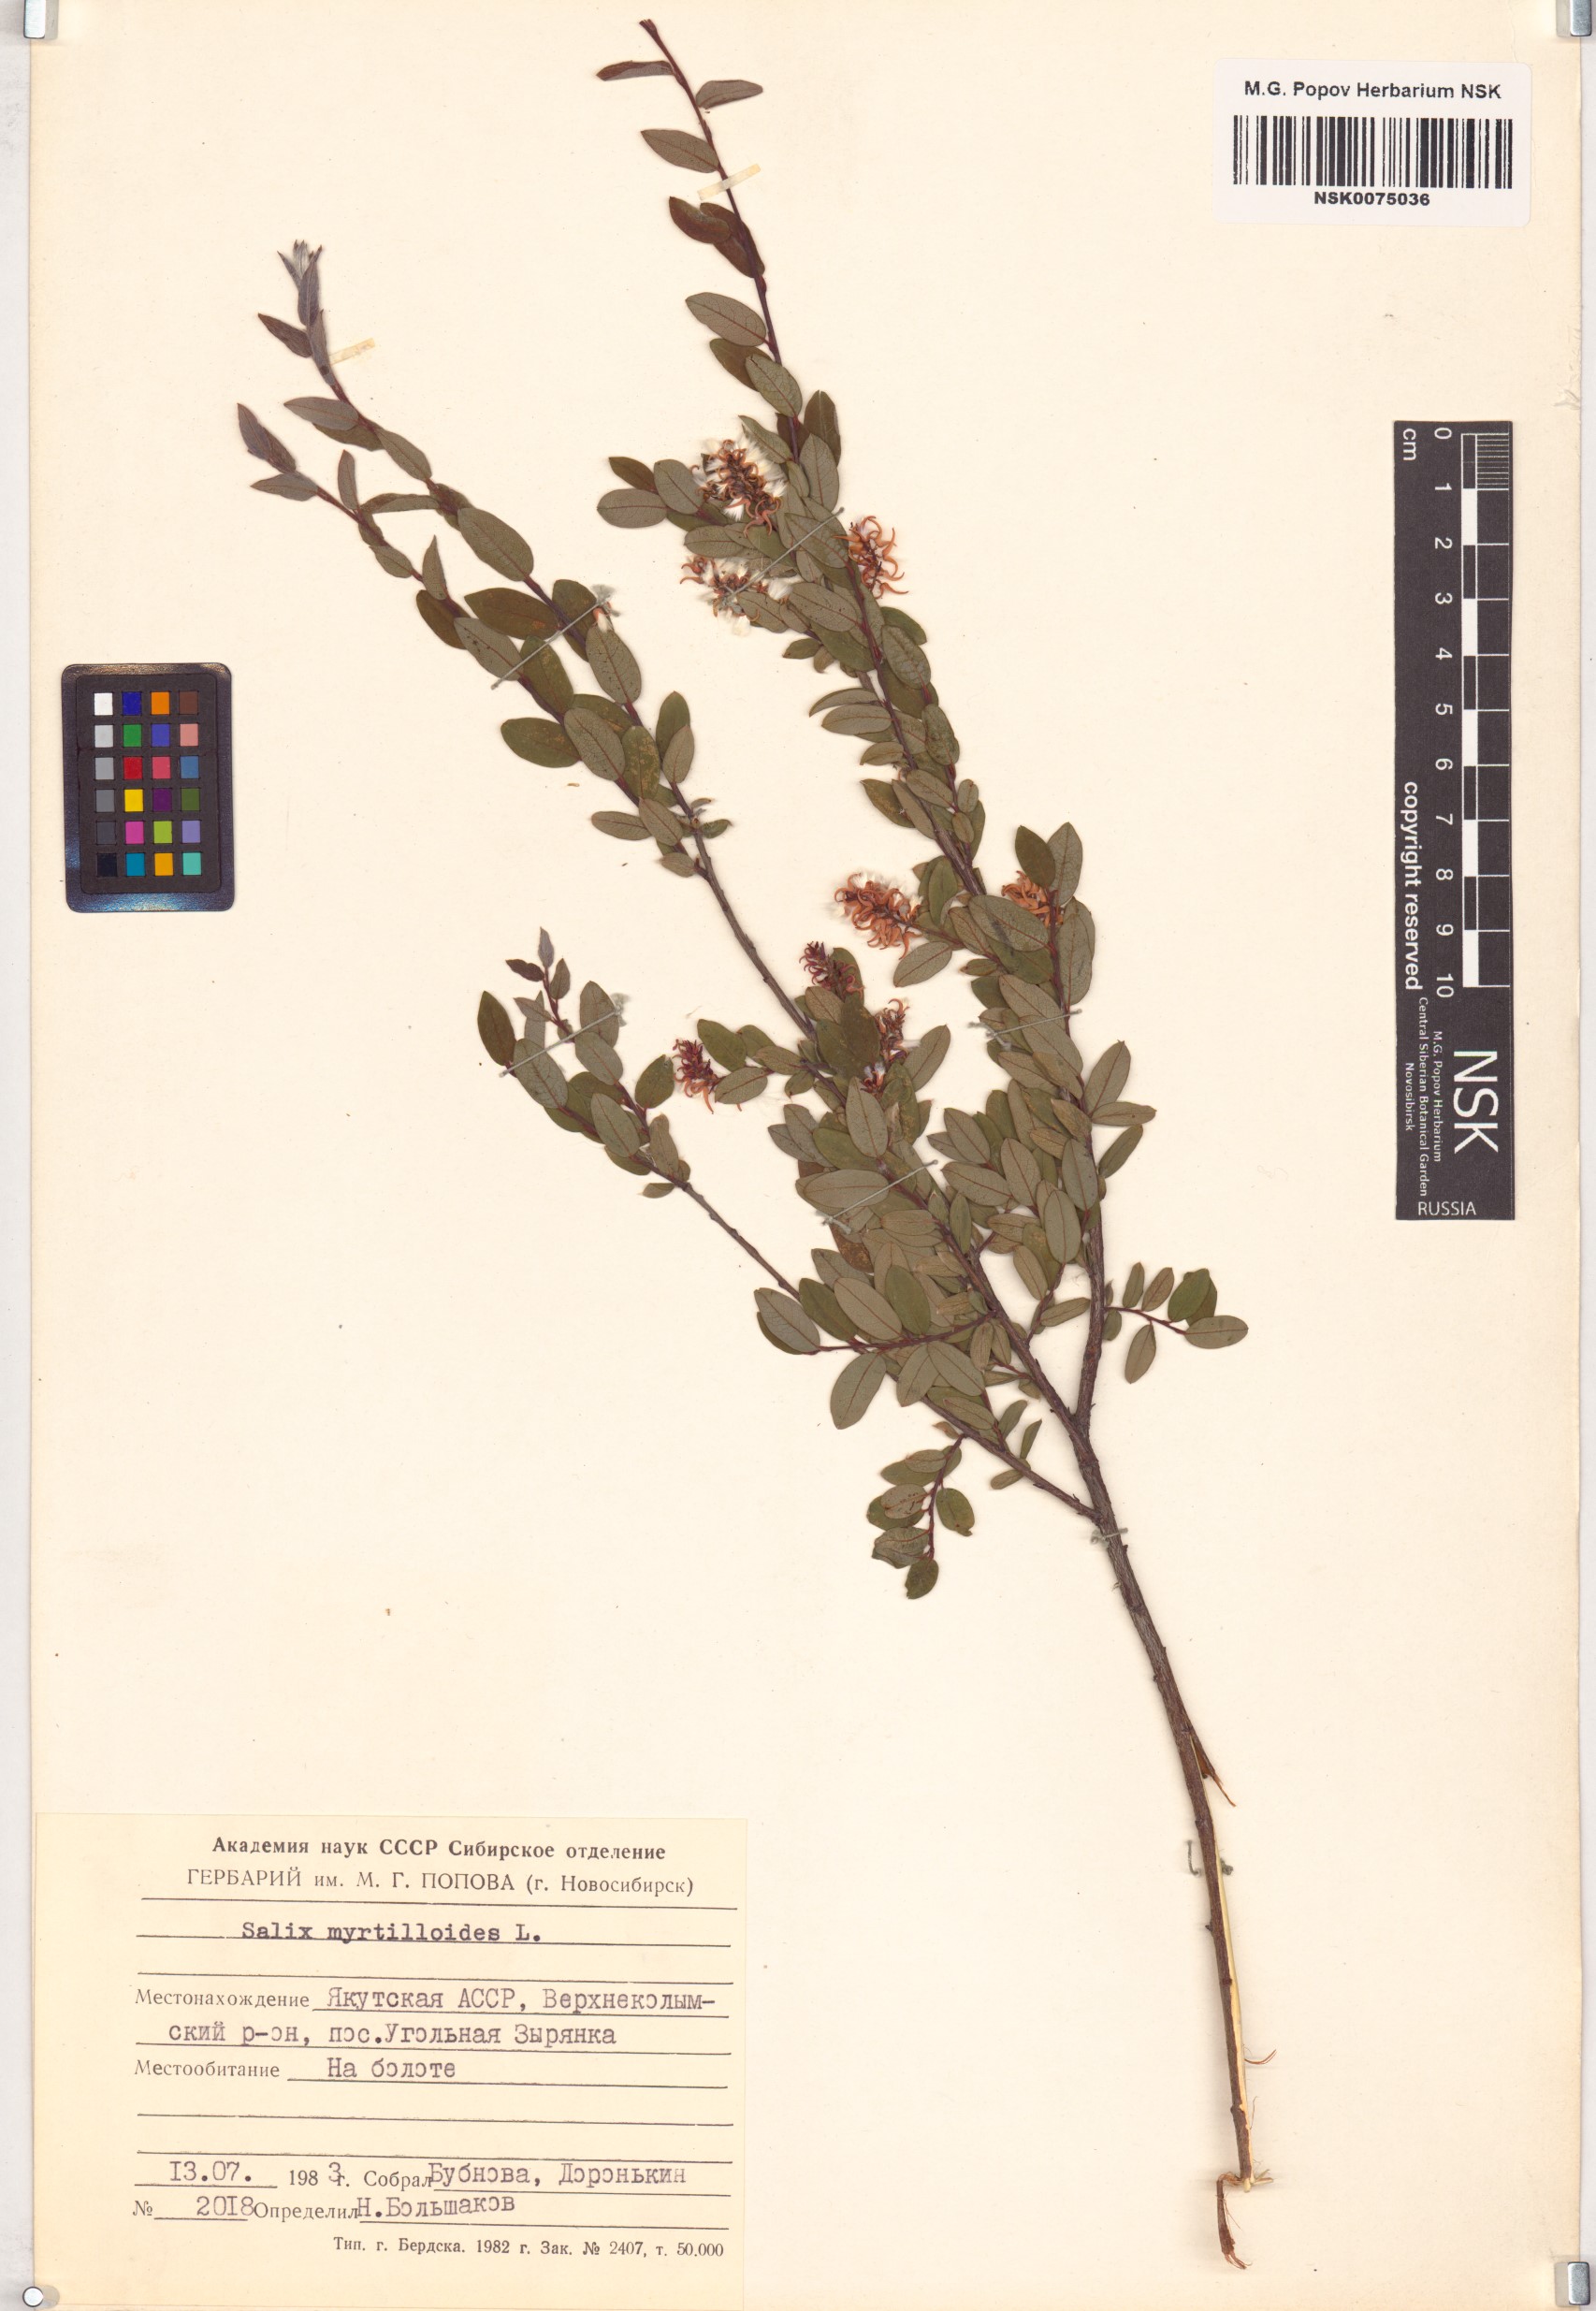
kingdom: Plantae
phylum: Tracheophyta
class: Magnoliopsida
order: Malpighiales
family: Salicaceae
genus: Salix
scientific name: Salix myrtilloides
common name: Myrtle-leaved willow
